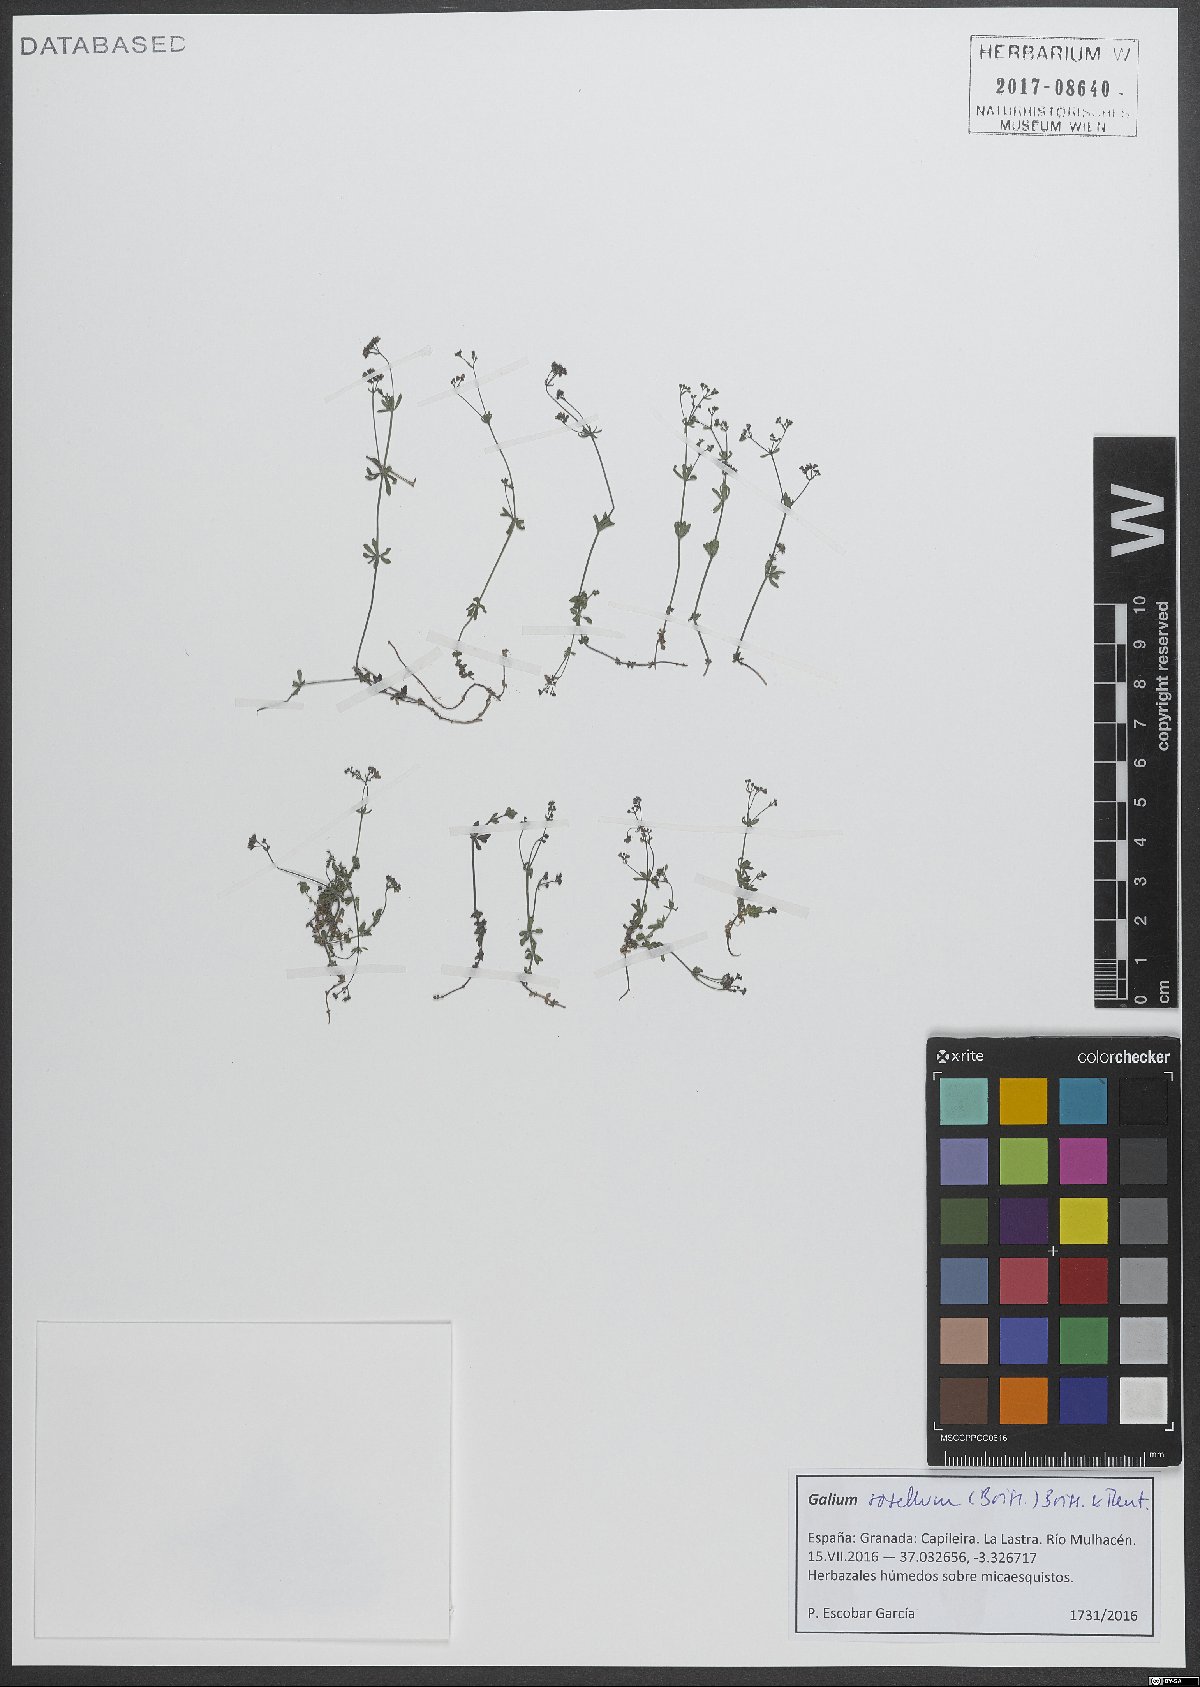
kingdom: Plantae
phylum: Tracheophyta
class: Magnoliopsida
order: Gentianales
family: Rubiaceae
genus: Galium
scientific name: Galium rosellum
